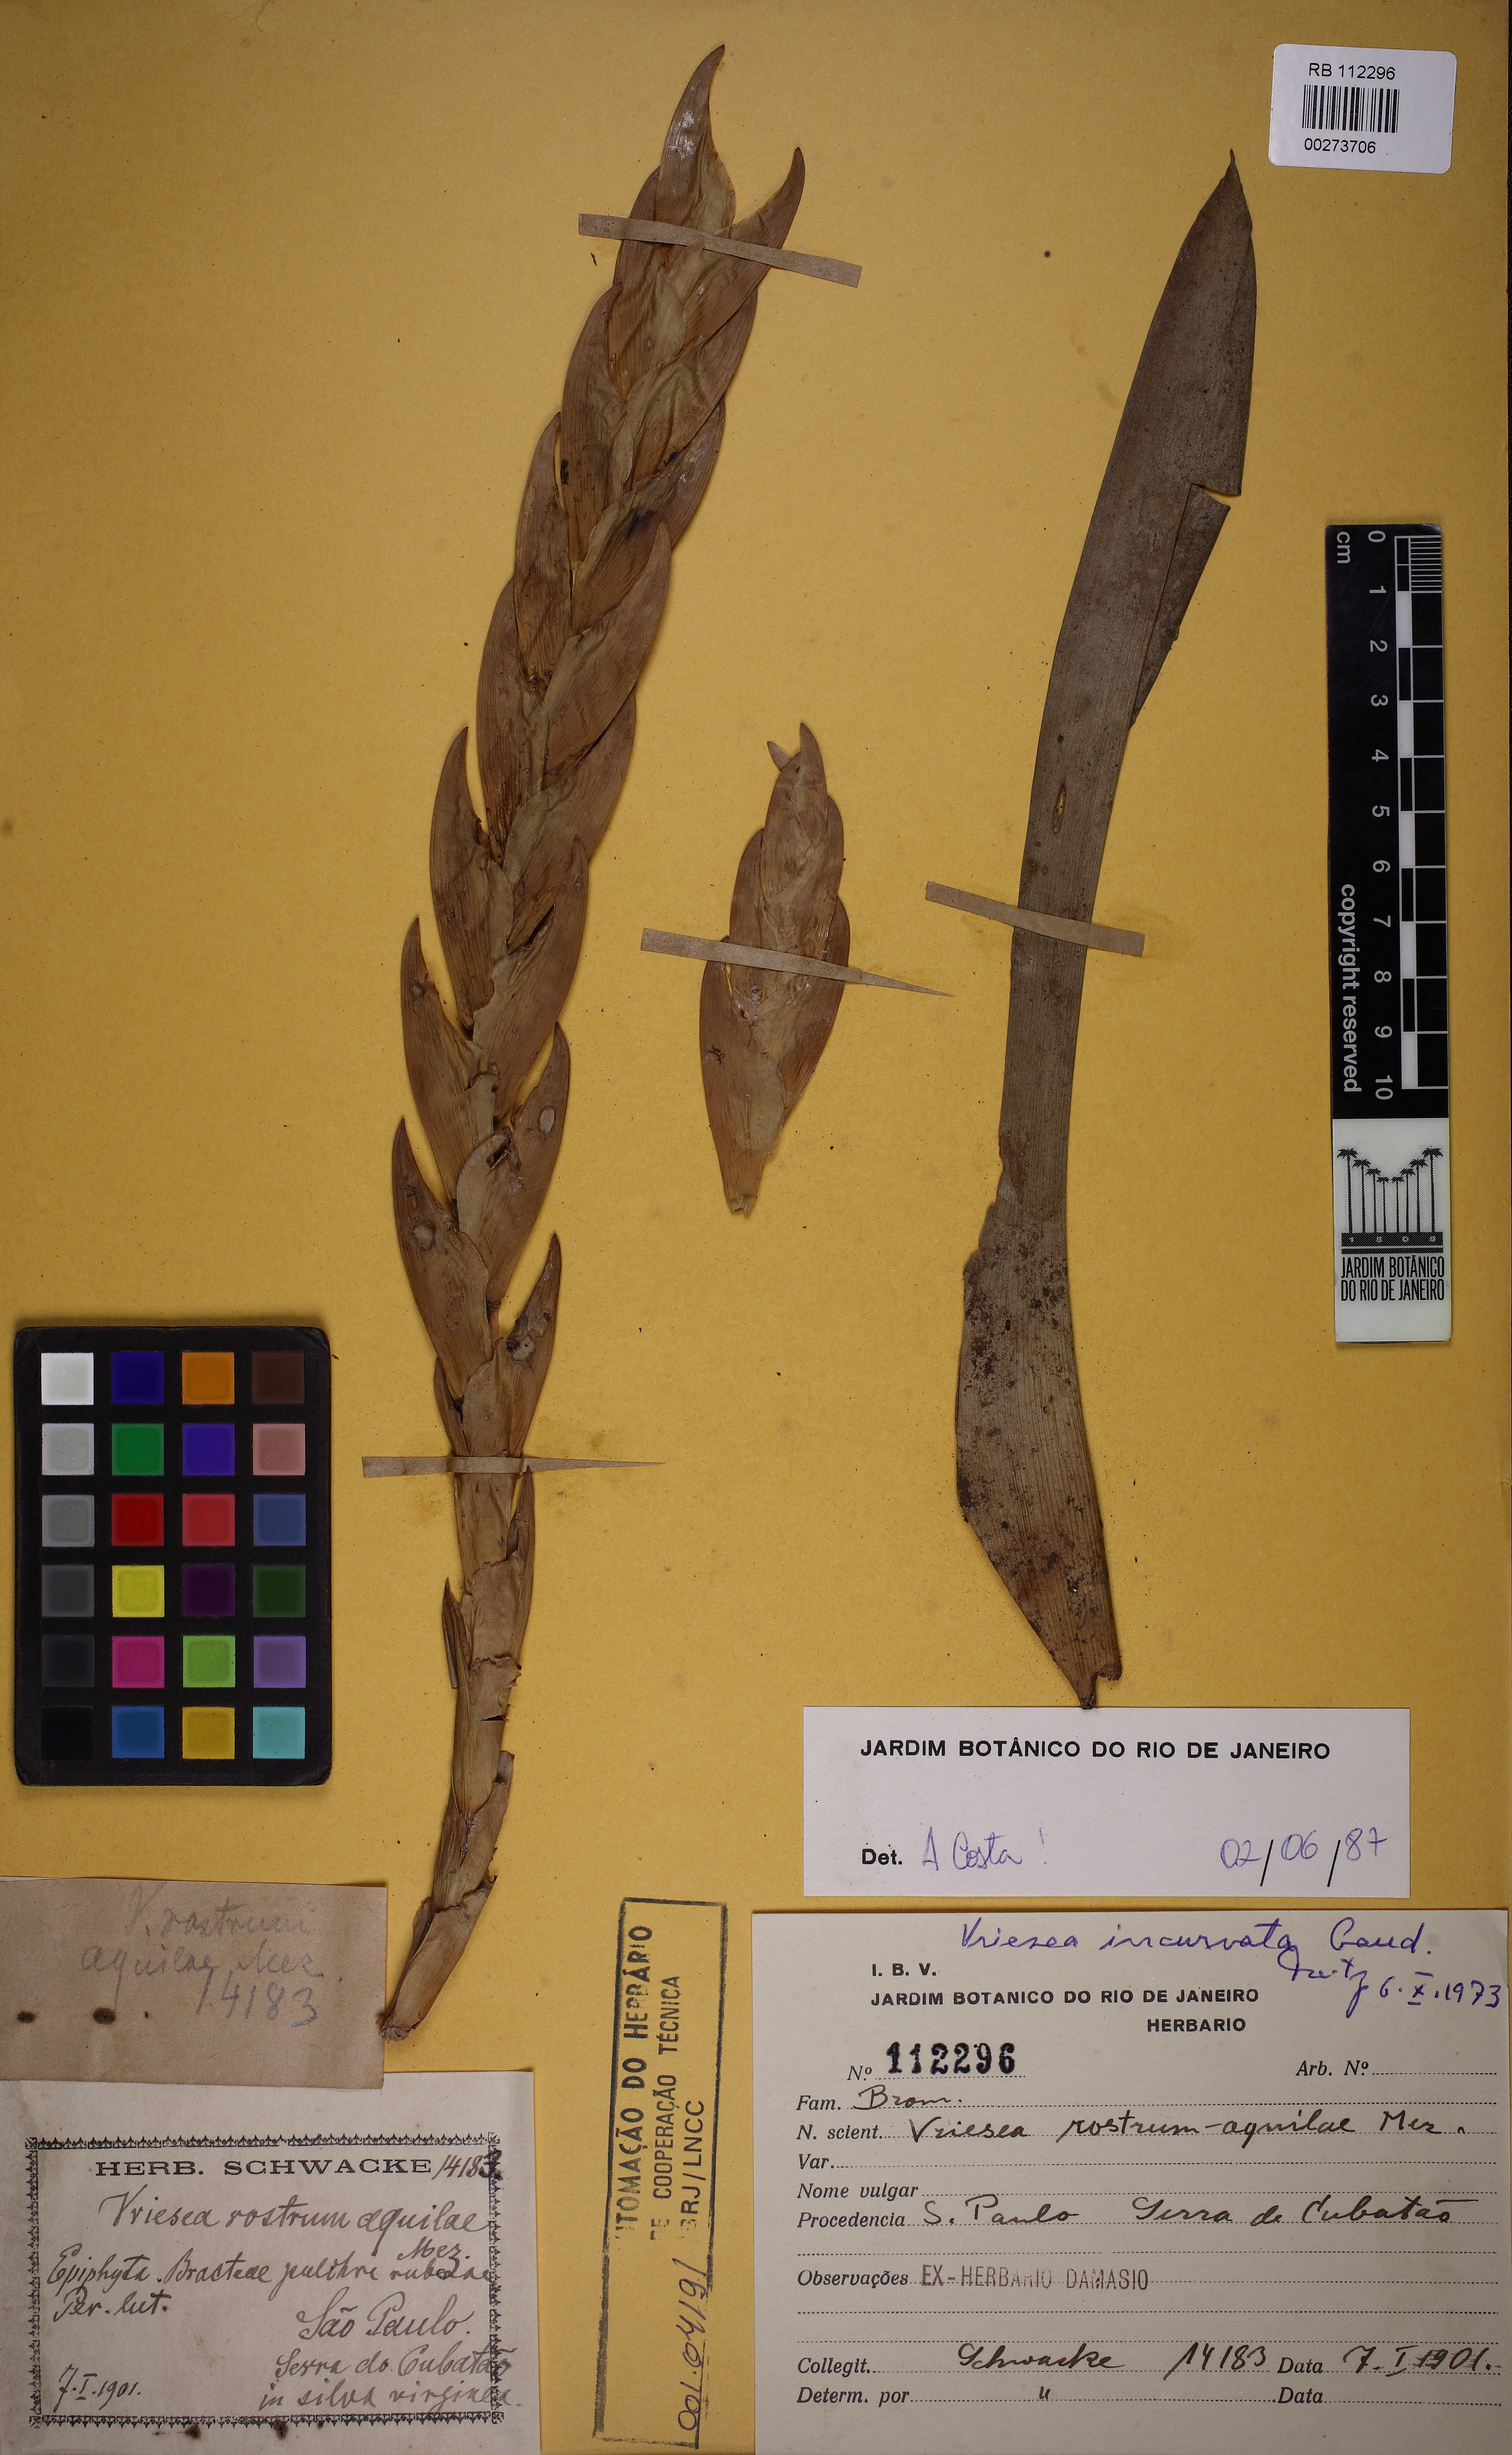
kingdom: Plantae
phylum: Tracheophyta
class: Liliopsida
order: Poales
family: Bromeliaceae
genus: Vriesea
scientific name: Vriesea incurvata
